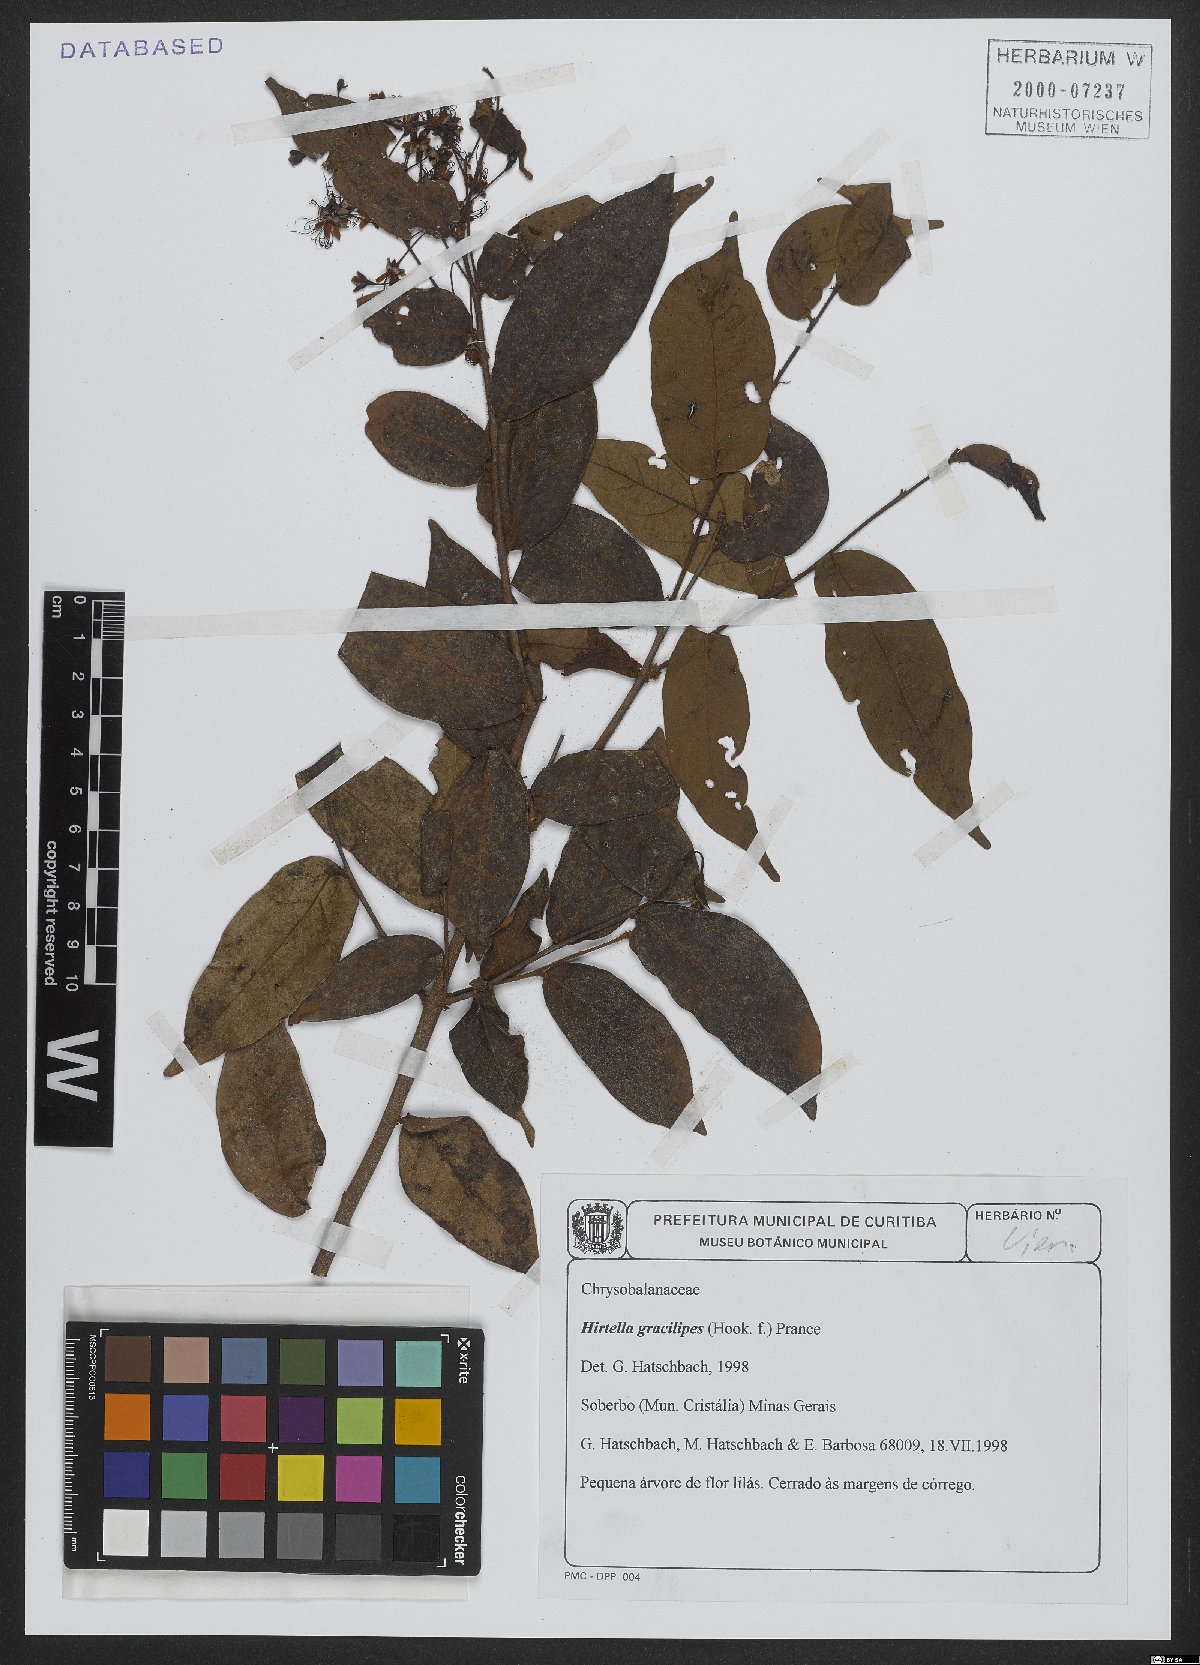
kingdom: Plantae
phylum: Tracheophyta
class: Magnoliopsida
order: Malpighiales
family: Chrysobalanaceae
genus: Hirtella
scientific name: Hirtella gracilipes
